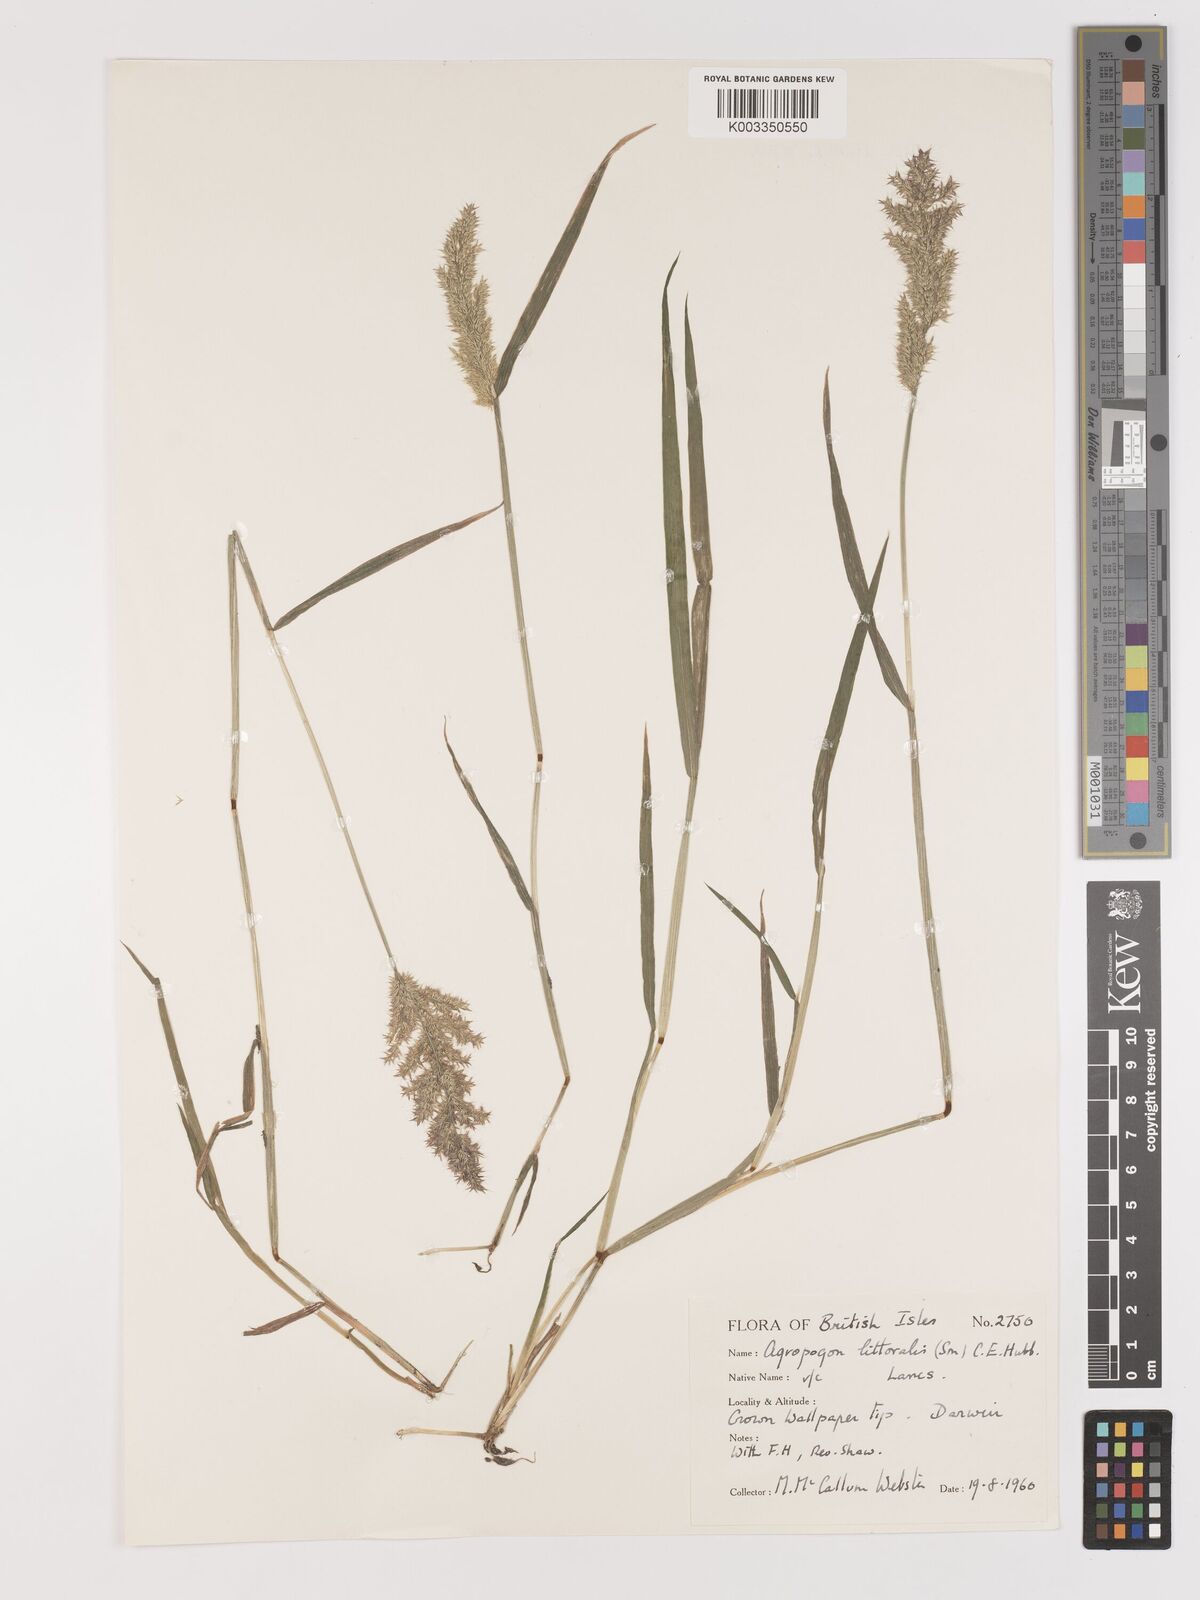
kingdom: Plantae
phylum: Tracheophyta
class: Liliopsida
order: Poales
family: Poaceae
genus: Agropogon
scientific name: Agropogon lutosus
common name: Coast agropogon
